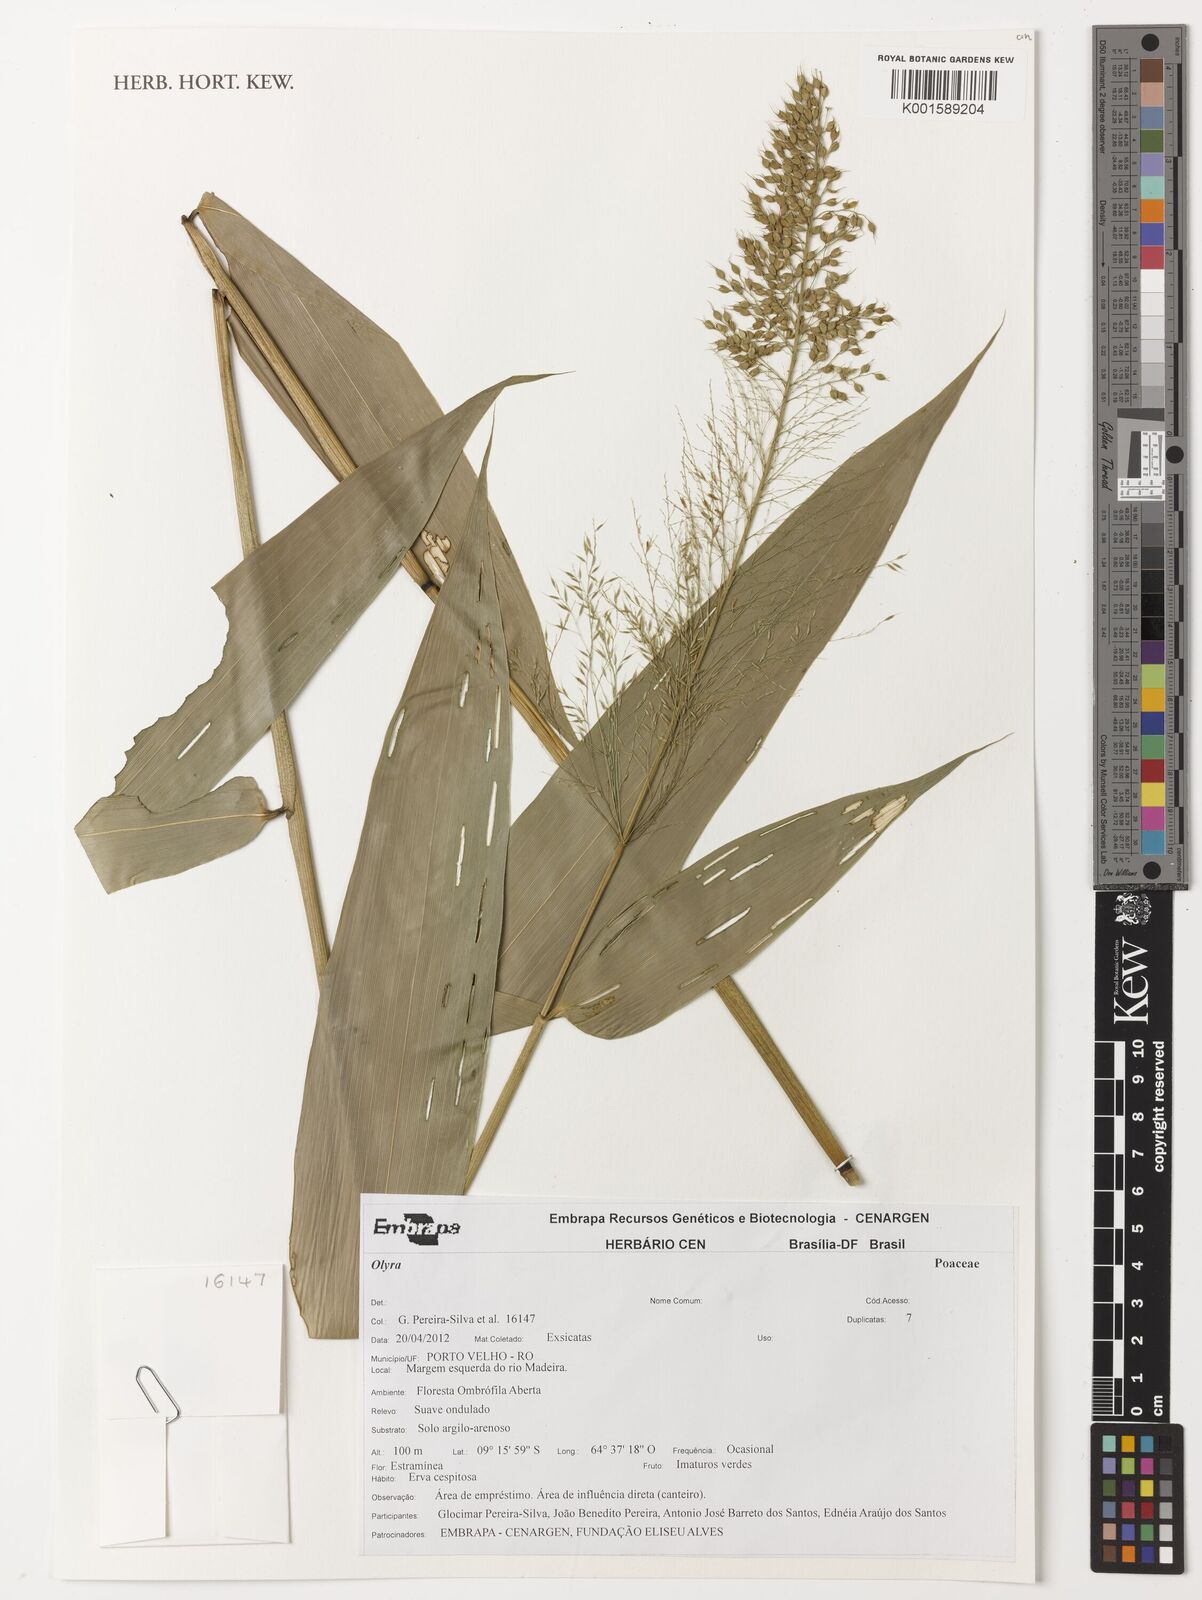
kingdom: Plantae
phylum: Tracheophyta
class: Liliopsida
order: Poales
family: Poaceae
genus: Olyra
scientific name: Olyra
